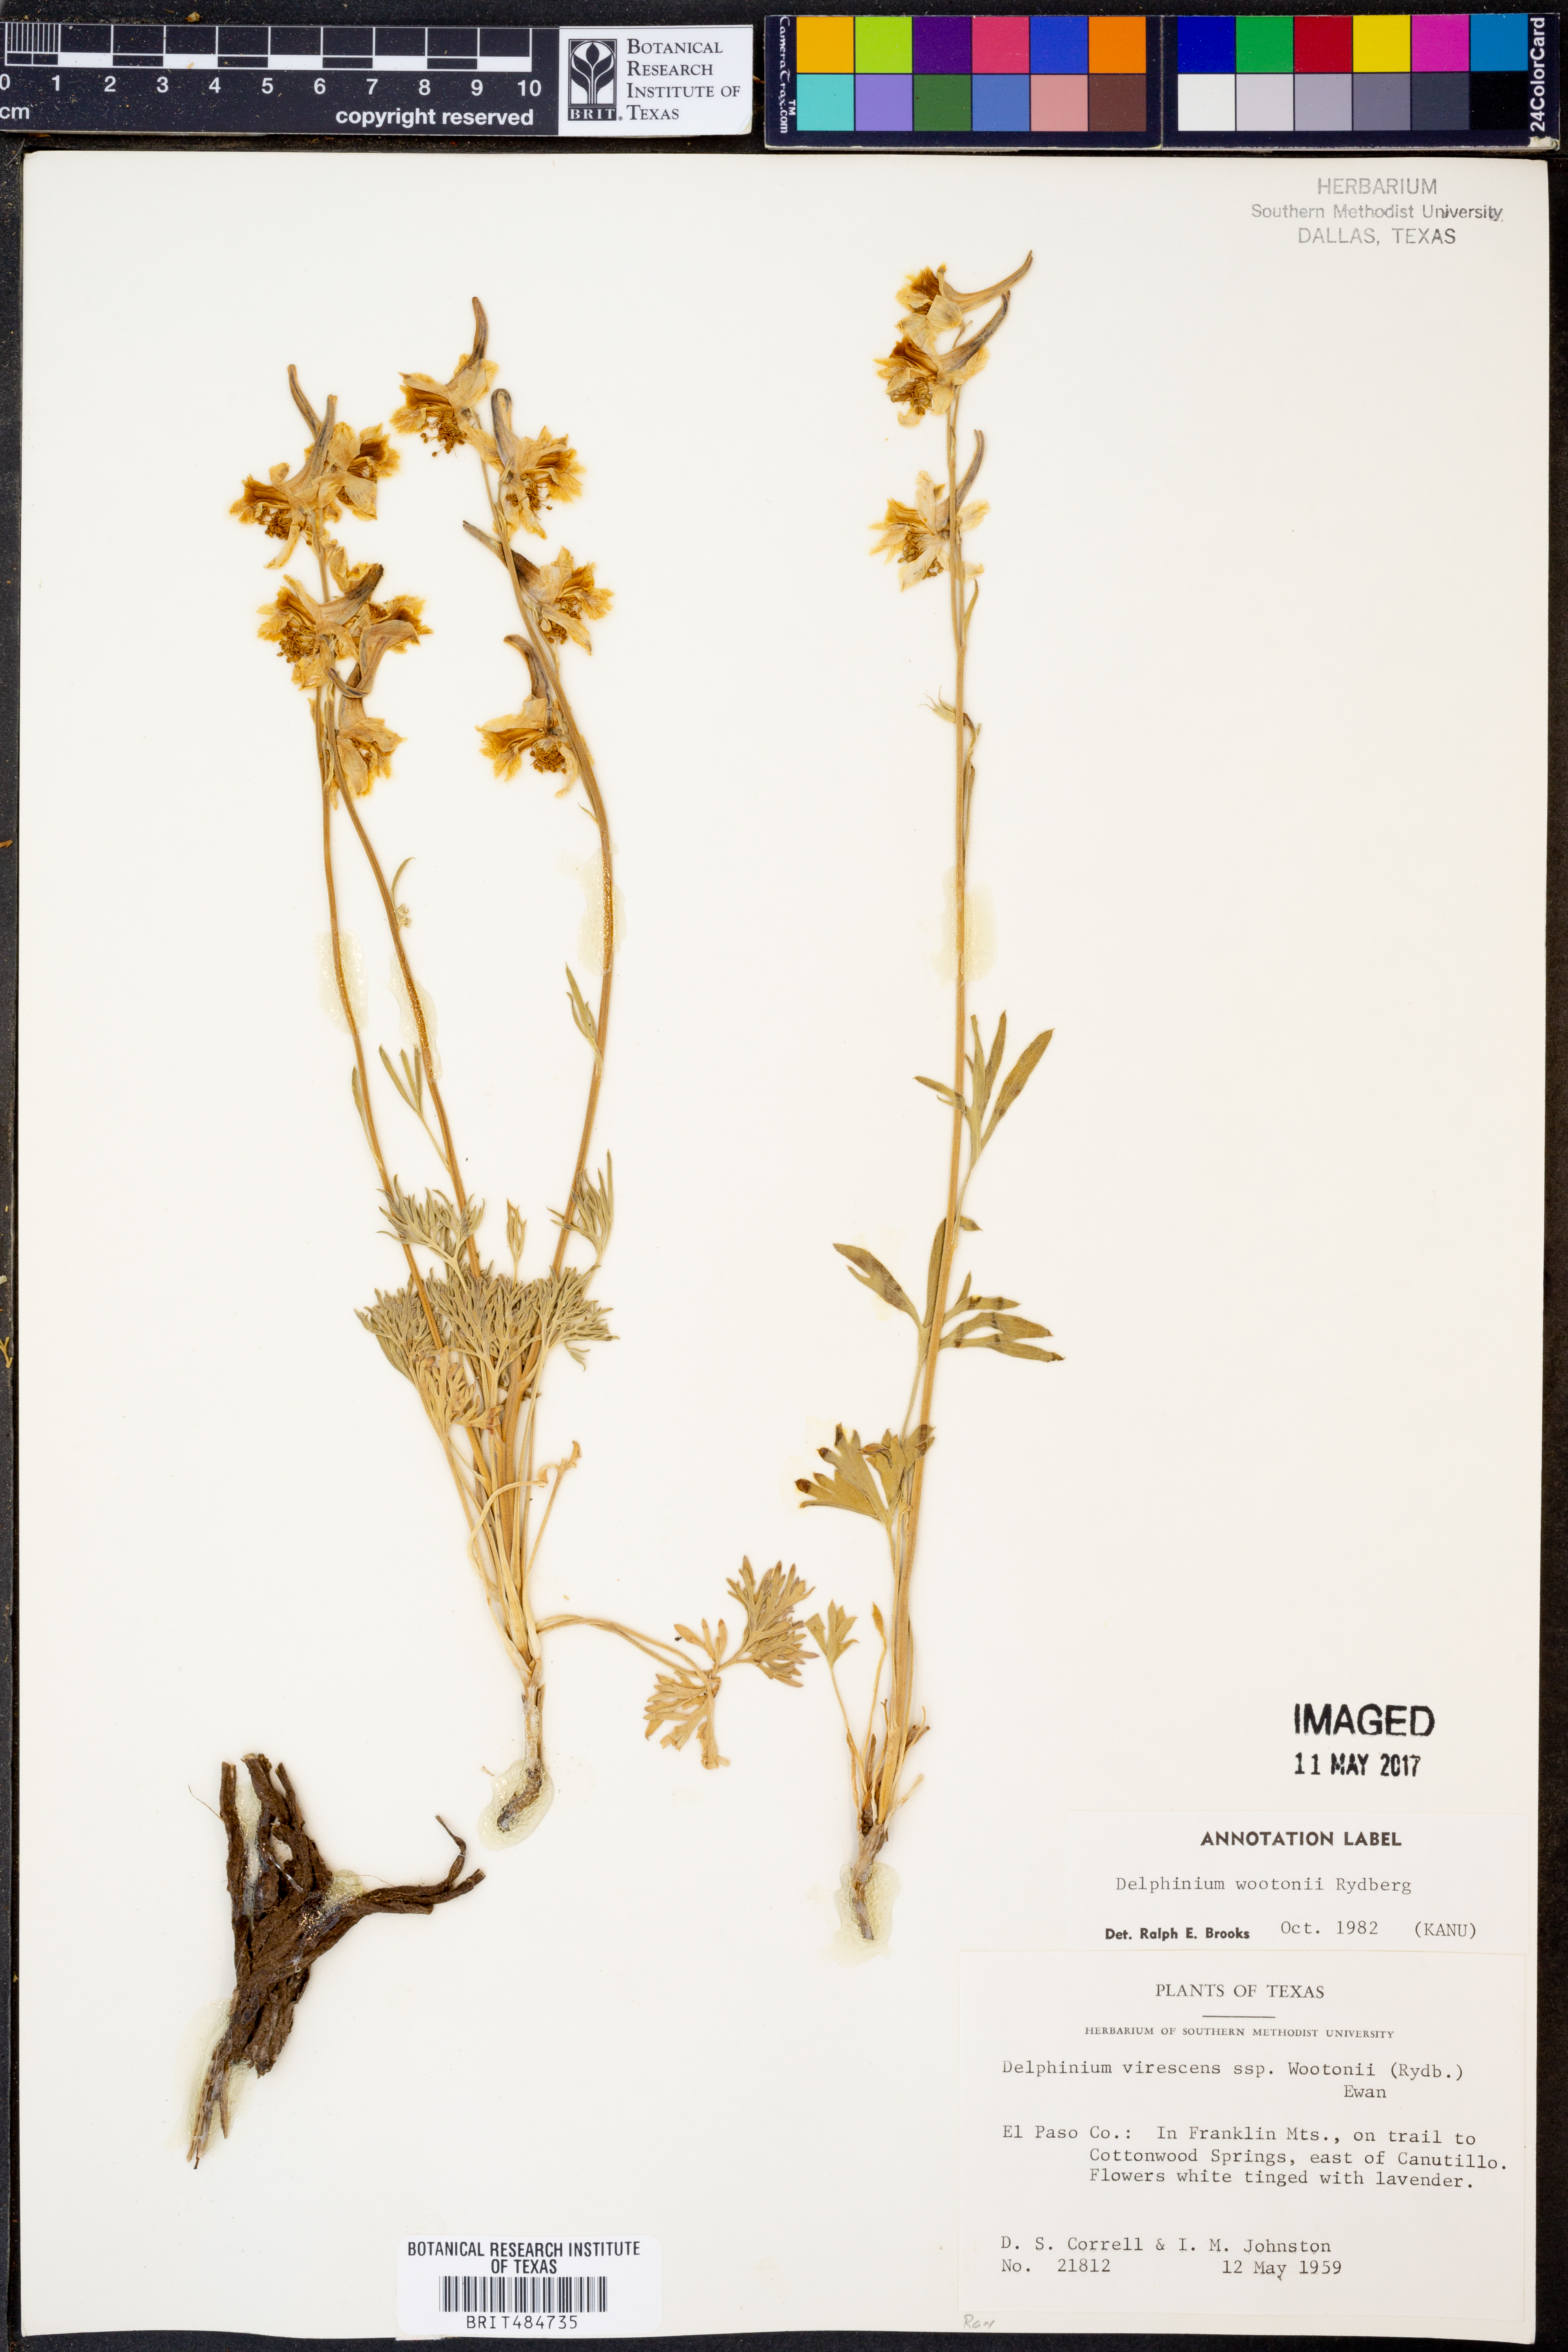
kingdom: Plantae
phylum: Tracheophyta
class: Magnoliopsida
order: Ranunculales
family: Ranunculaceae
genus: Delphinium
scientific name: Delphinium wootonii
